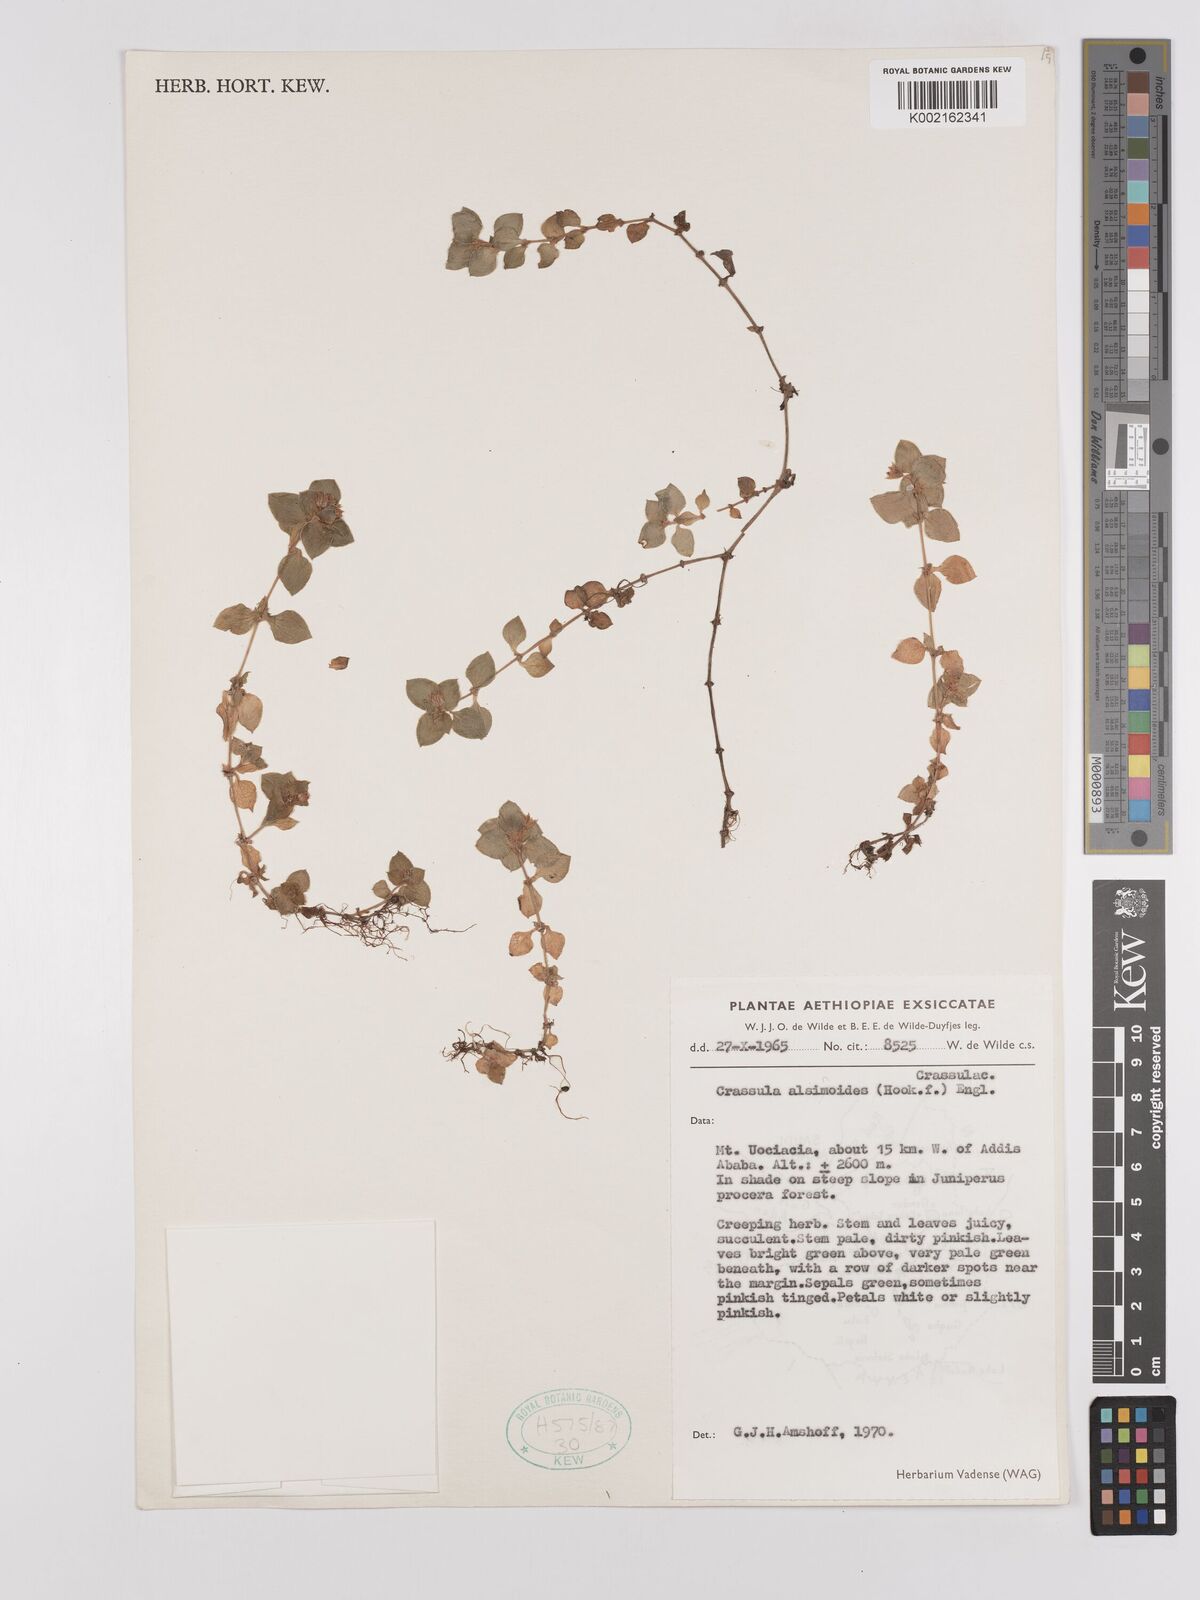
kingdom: Plantae
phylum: Tracheophyta
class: Magnoliopsida
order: Saxifragales
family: Crassulaceae
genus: Crassula
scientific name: Crassula alsinoides
